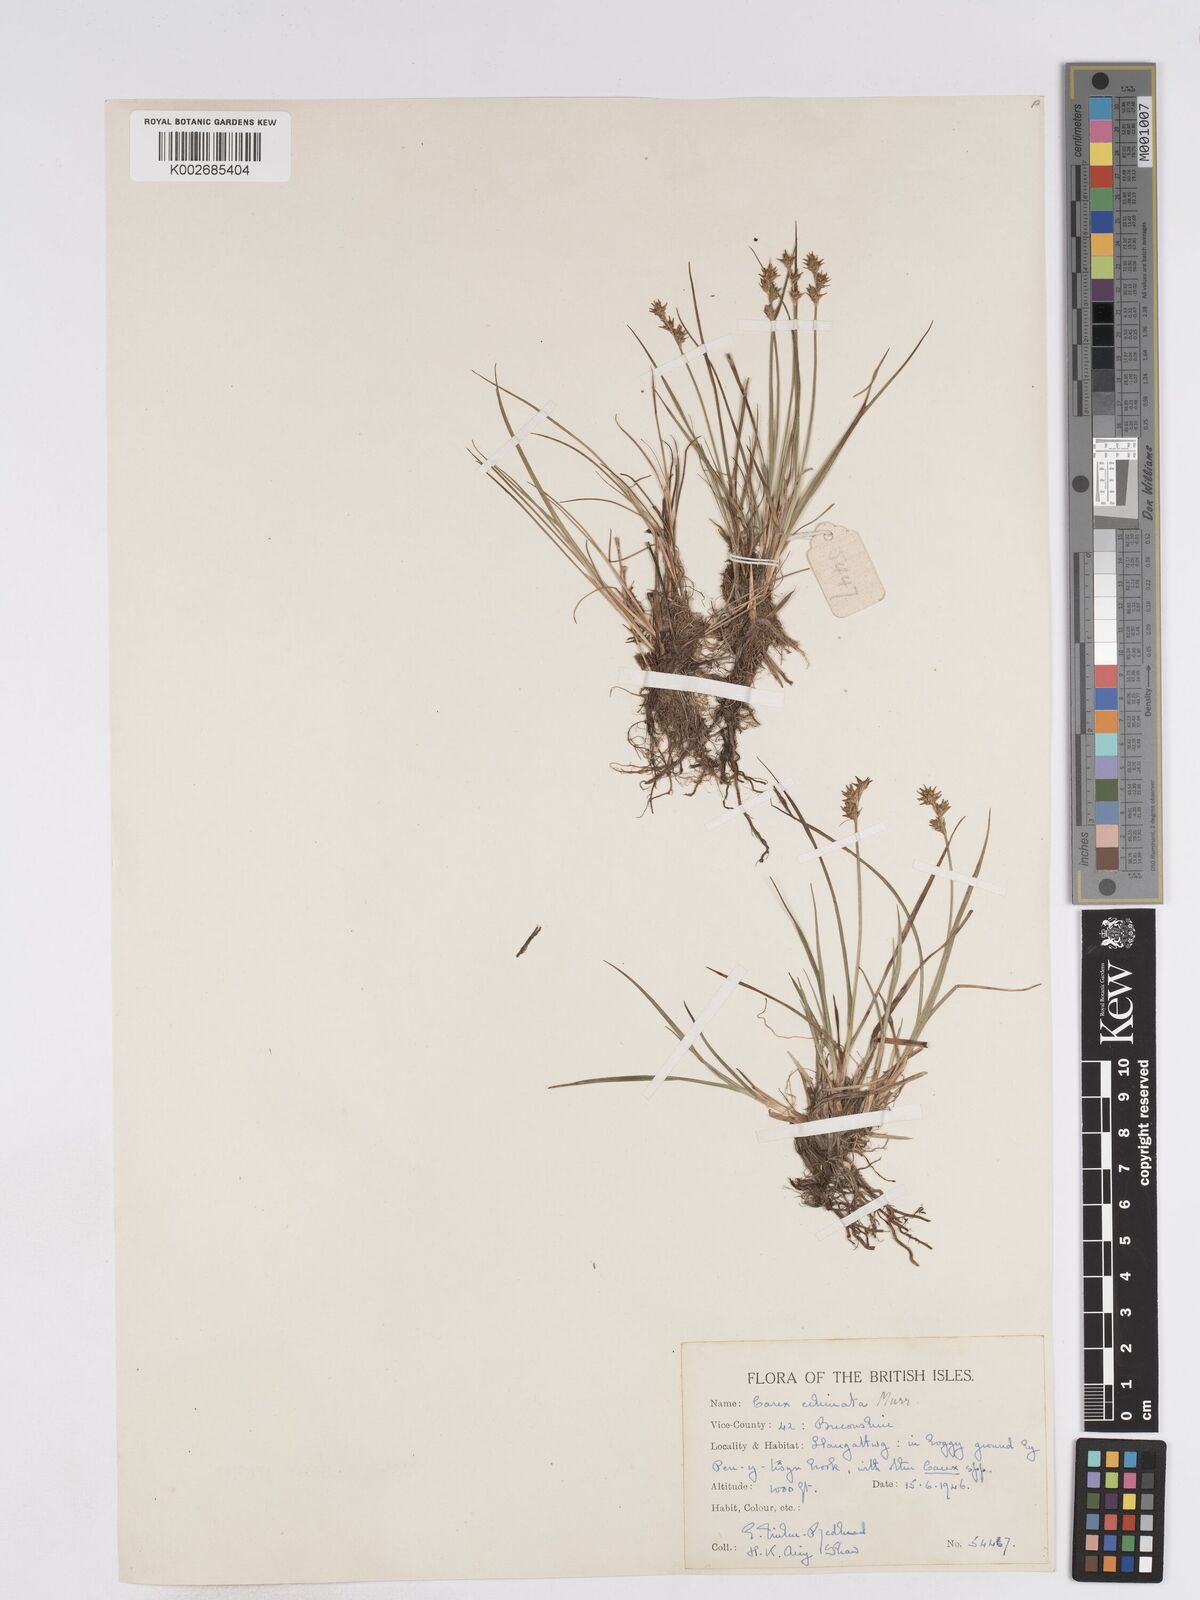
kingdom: Plantae
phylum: Tracheophyta
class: Liliopsida
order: Poales
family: Cyperaceae
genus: Carex
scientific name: Carex echinata
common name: Star sedge
